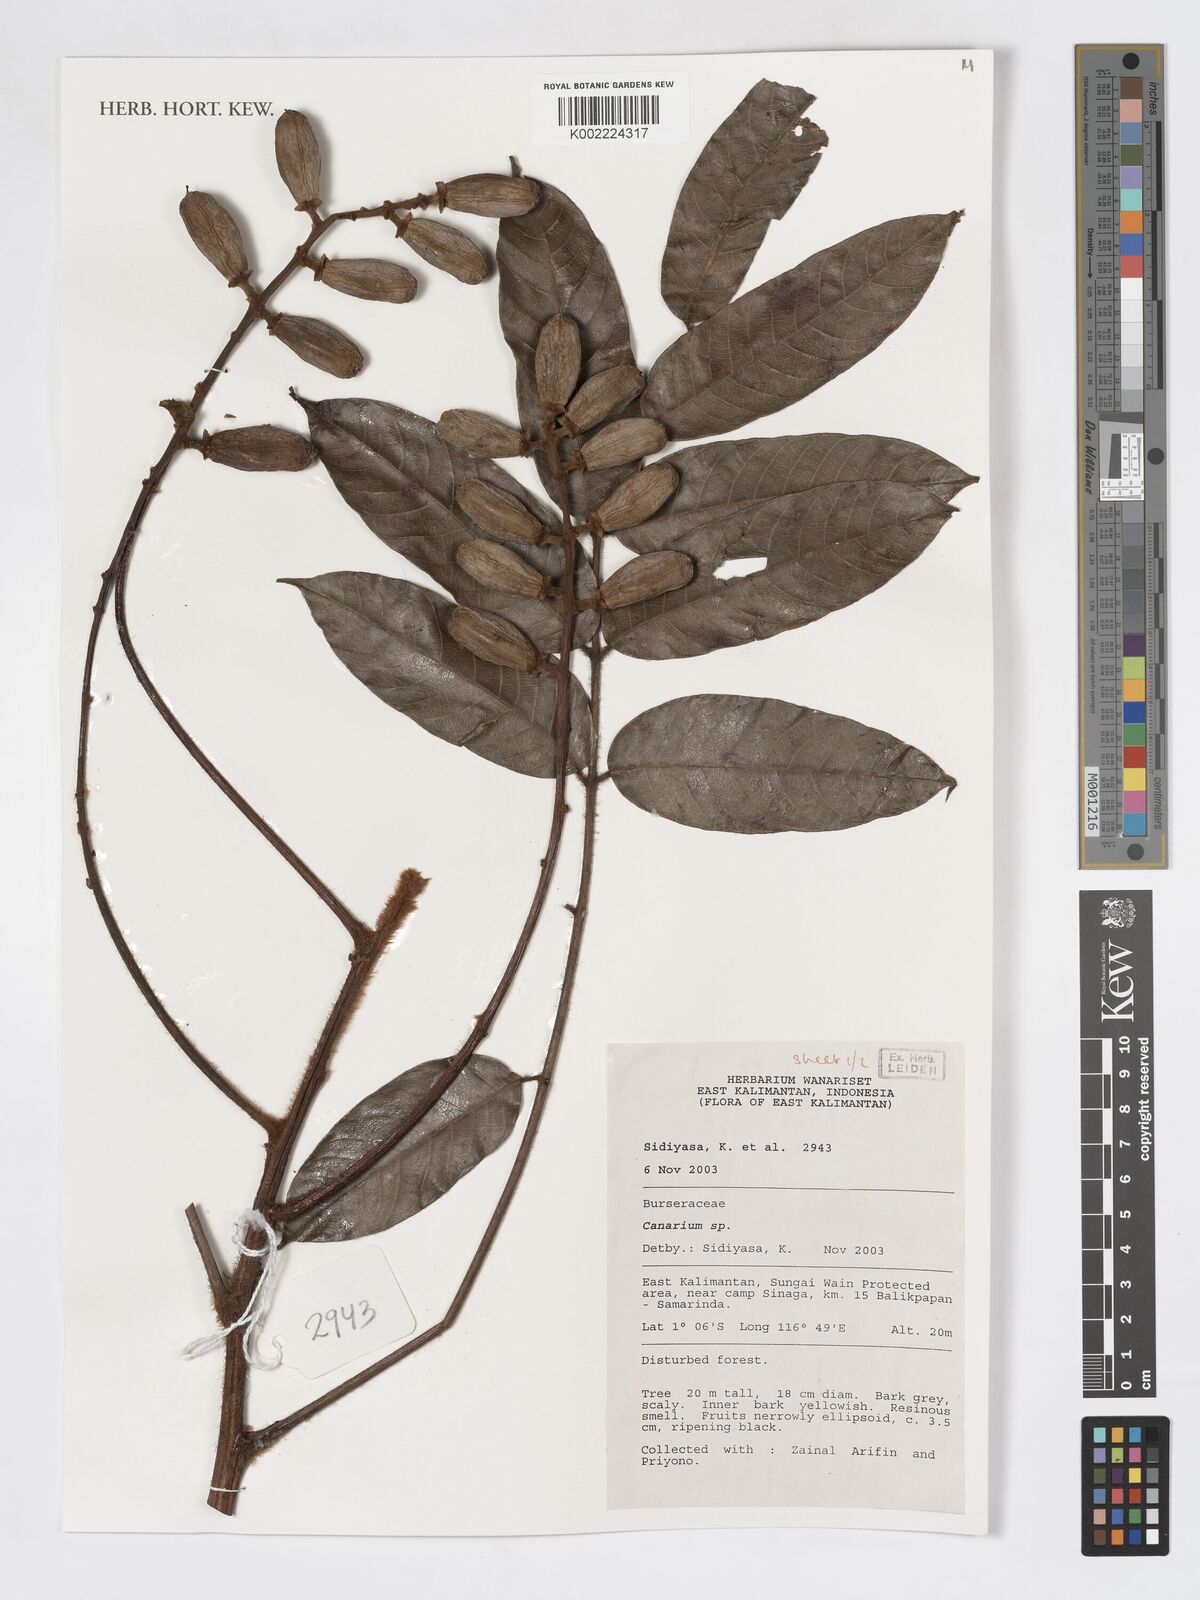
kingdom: Plantae
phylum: Tracheophyta
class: Magnoliopsida
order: Sapindales
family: Burseraceae
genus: Canarium
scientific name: Canarium
